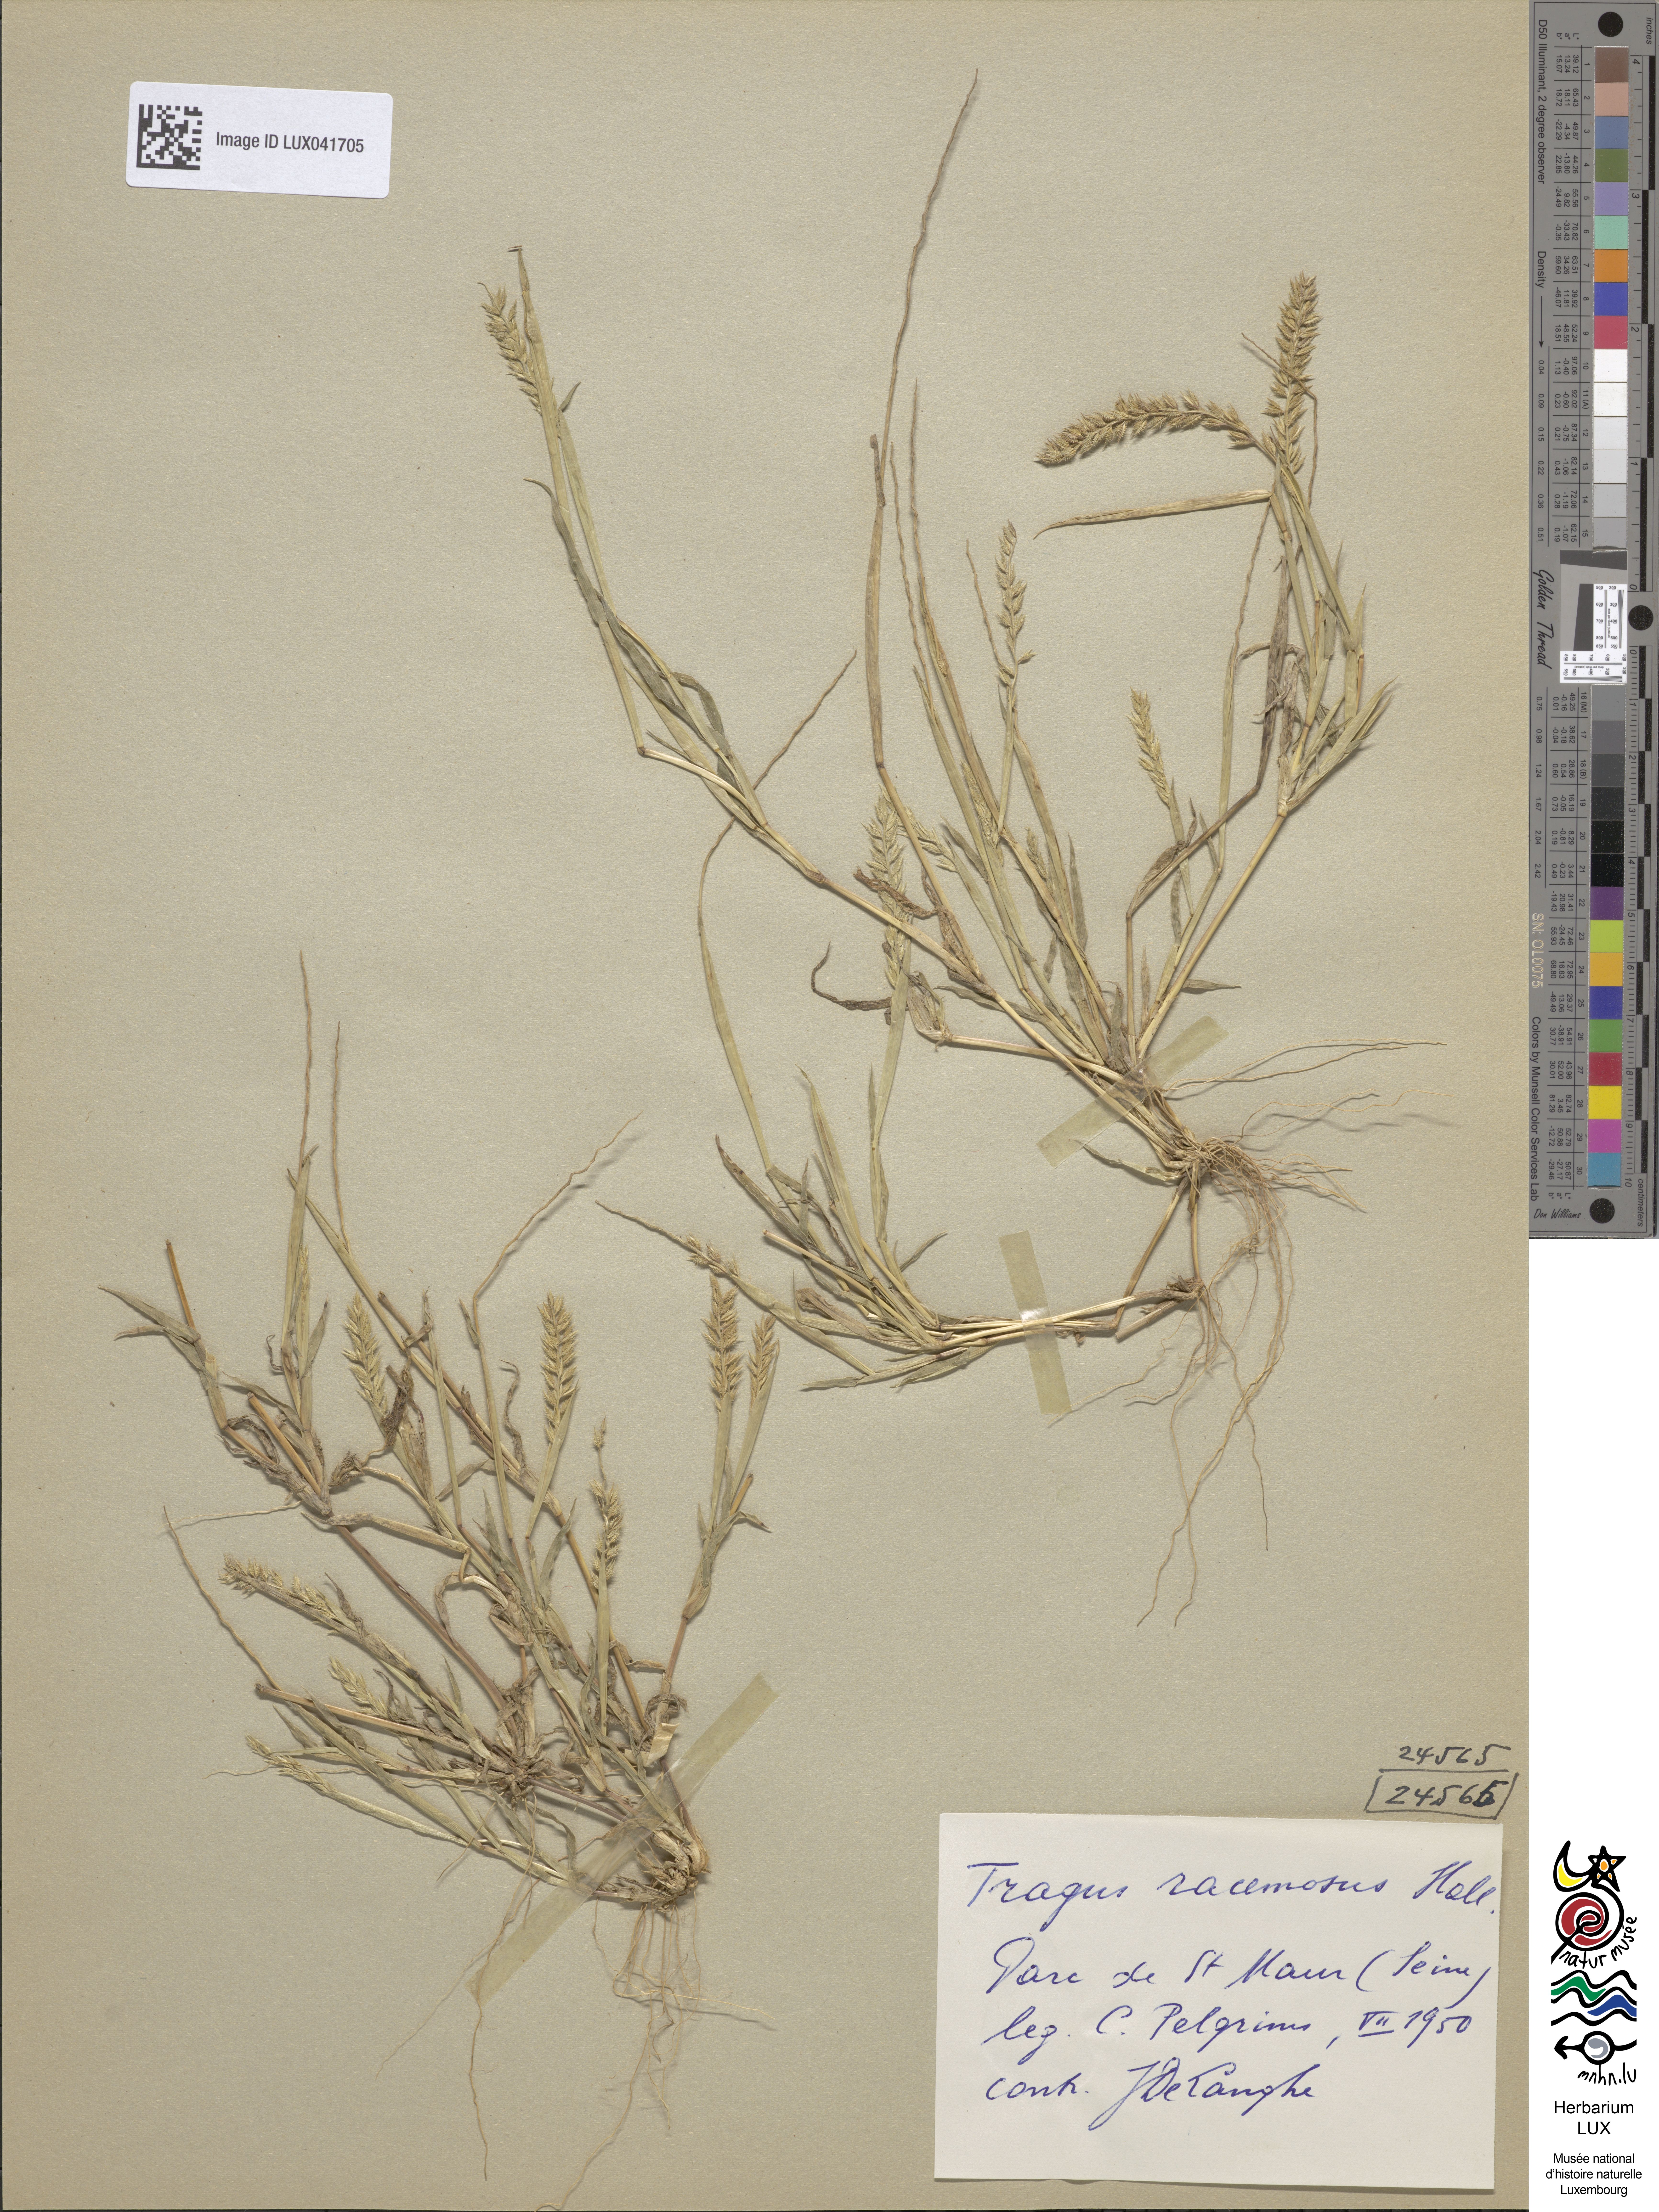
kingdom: Plantae
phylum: Tracheophyta
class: Liliopsida
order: Poales
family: Poaceae
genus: Tragus
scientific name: Tragus racemosus
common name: European bur-grass
